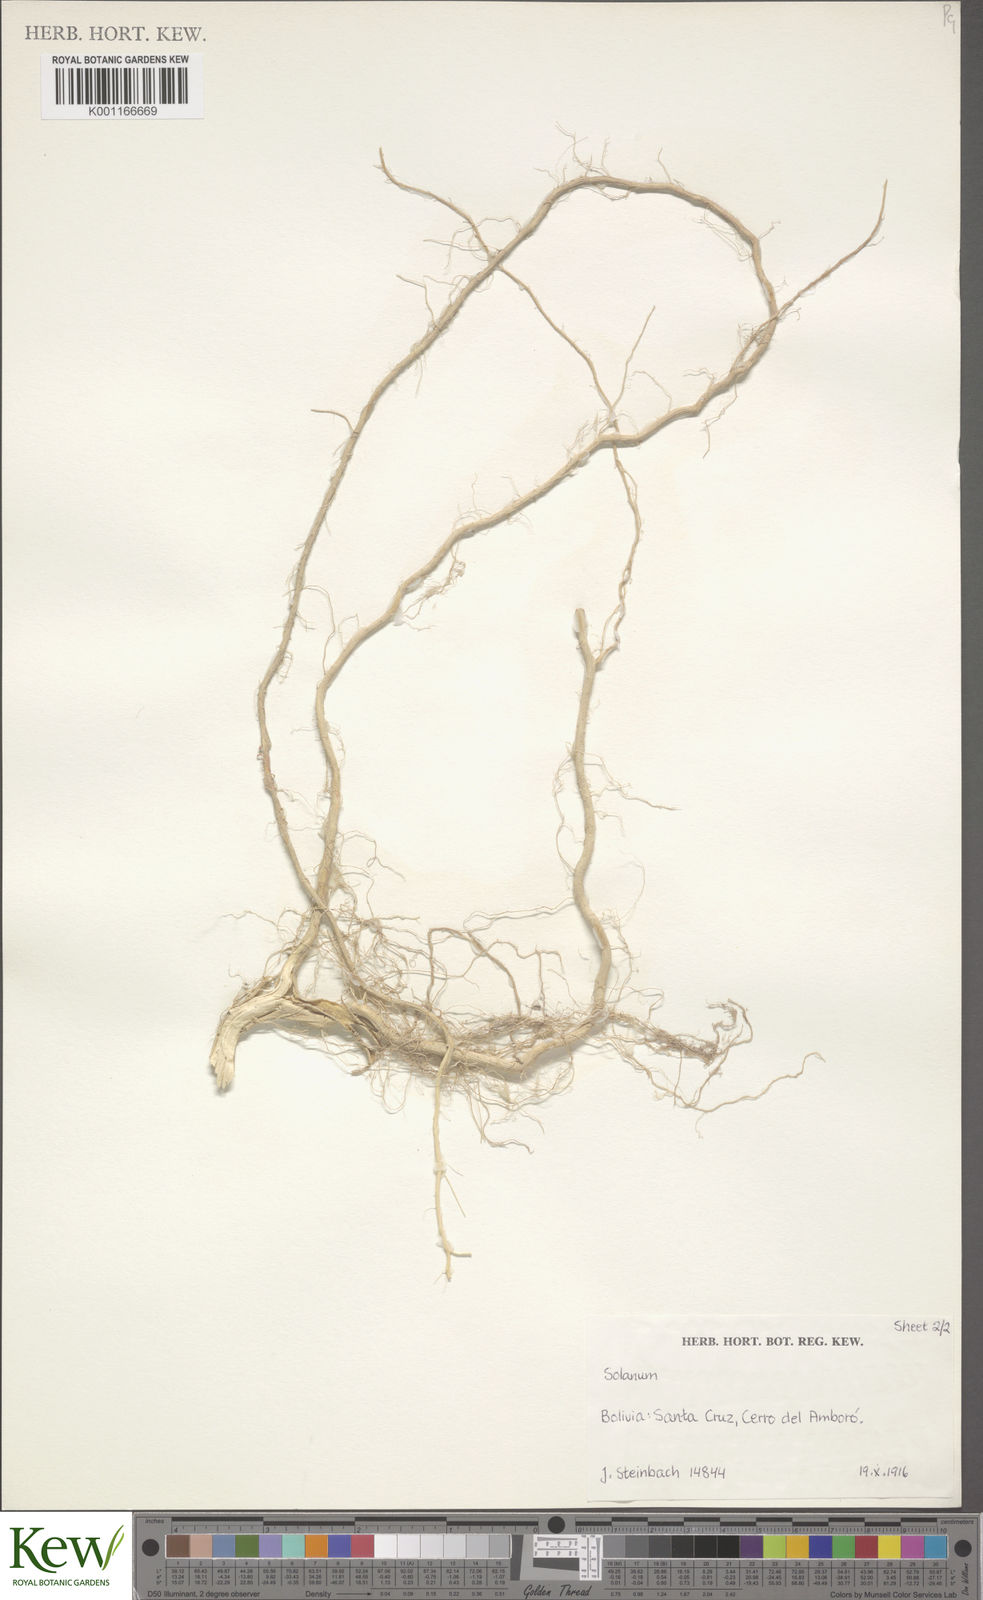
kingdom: Plantae
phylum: Tracheophyta
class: Magnoliopsida
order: Solanales
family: Solanaceae
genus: Solanum
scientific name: Solanum
